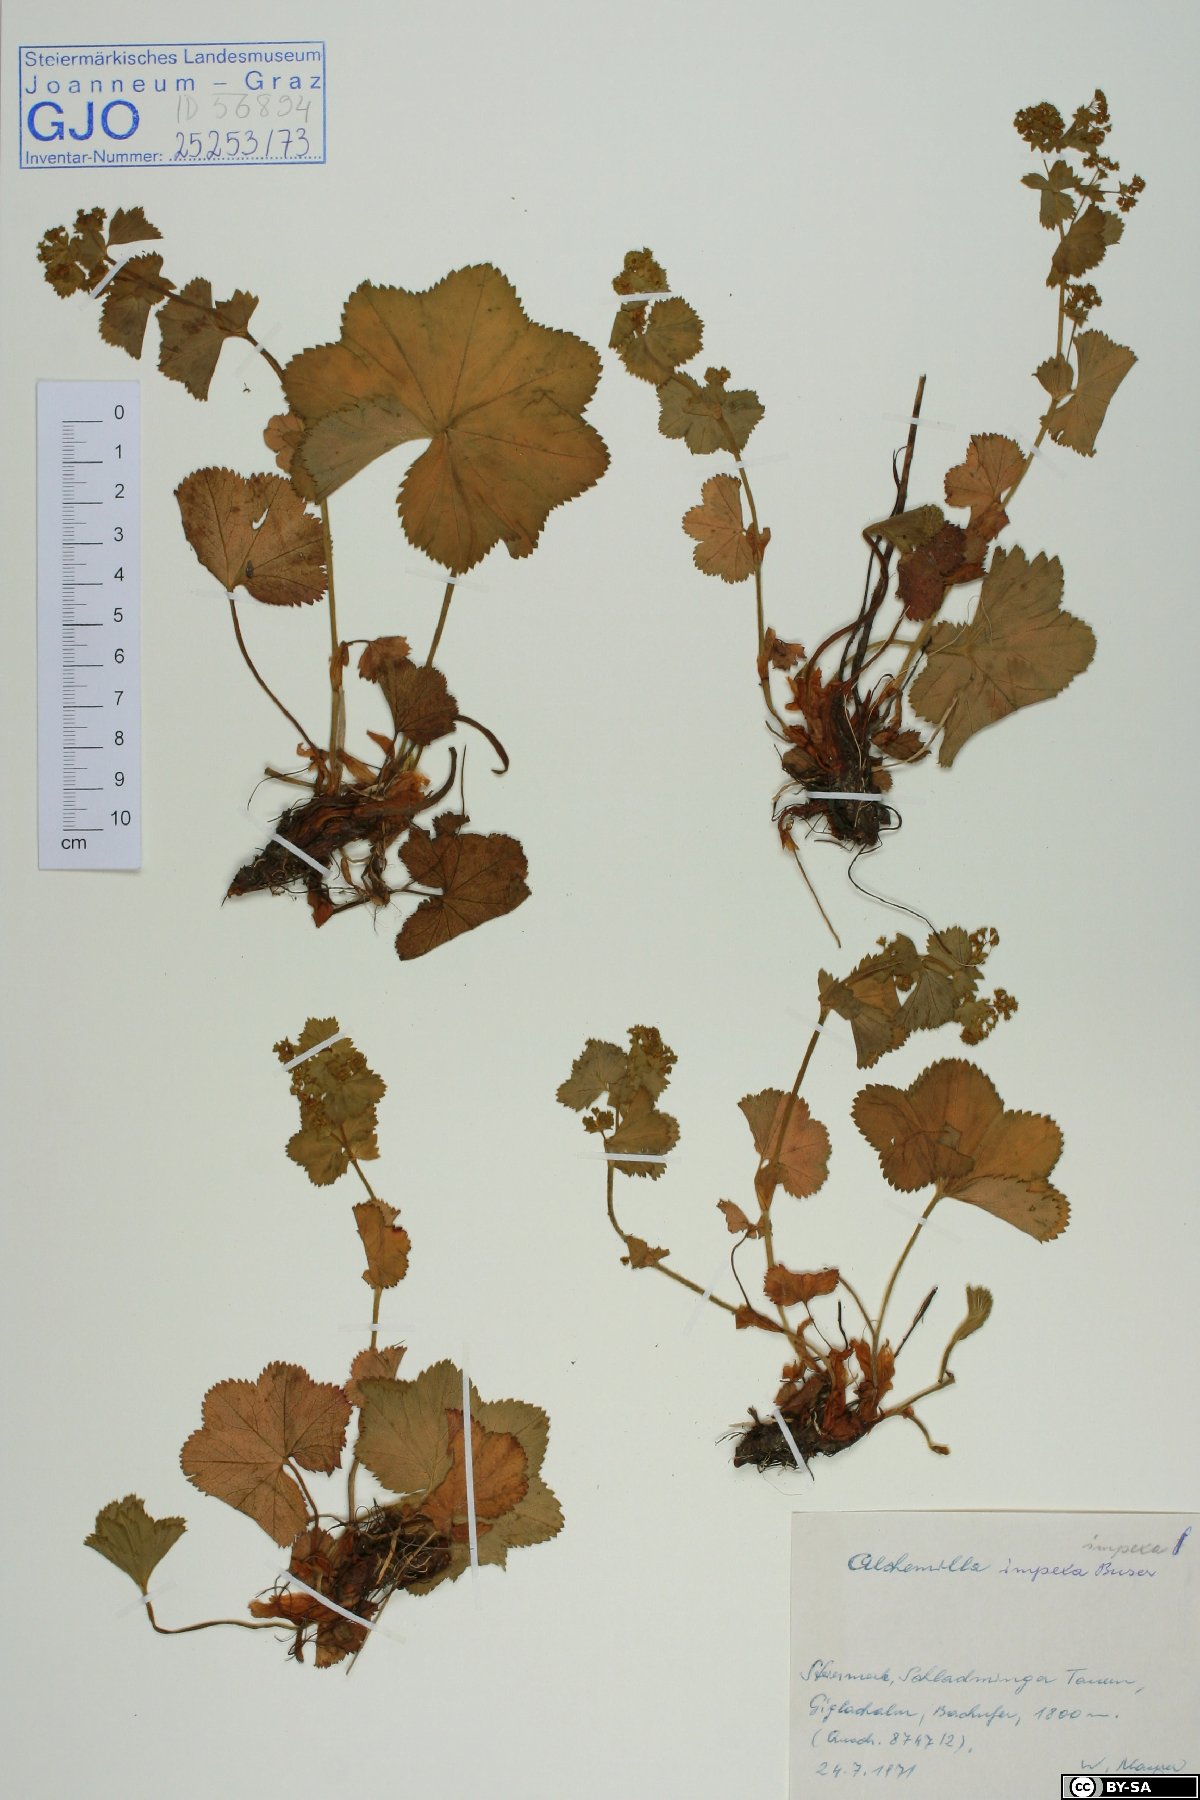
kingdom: Plantae
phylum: Tracheophyta
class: Magnoliopsida
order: Rosales
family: Rosaceae
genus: Alchemilla
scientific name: Alchemilla impexa
